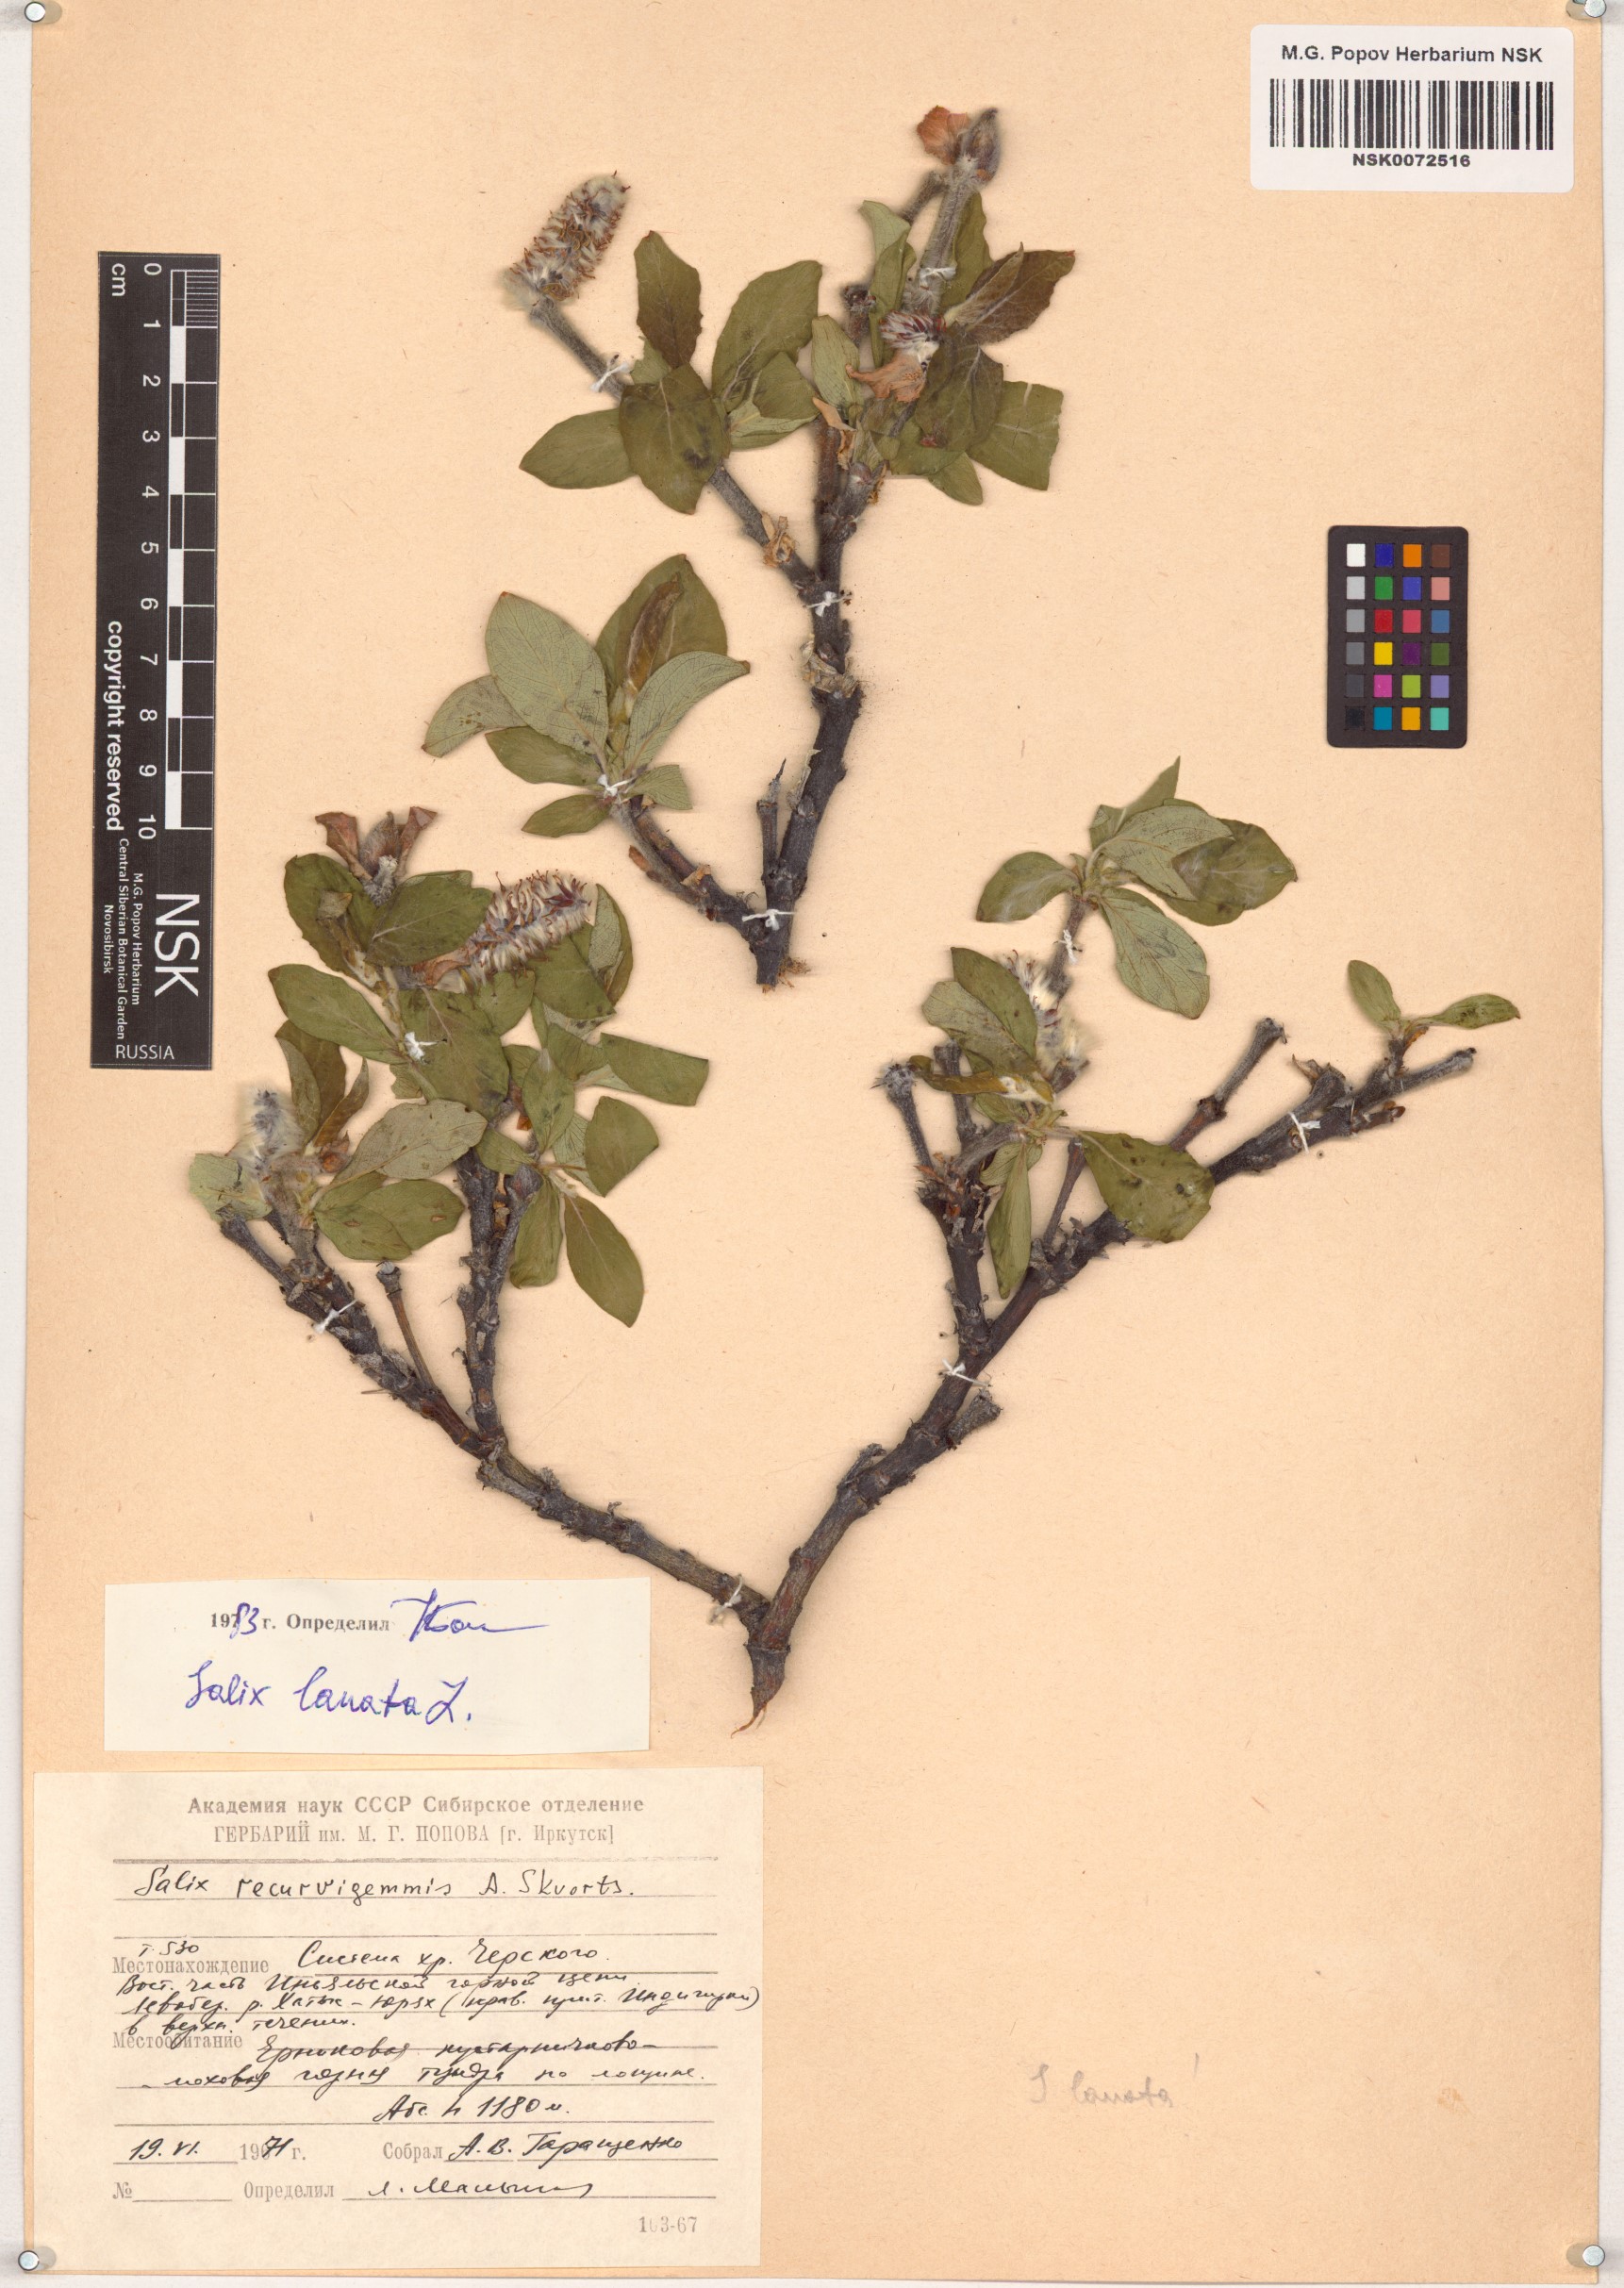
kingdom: Plantae
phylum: Tracheophyta
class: Magnoliopsida
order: Malpighiales
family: Salicaceae
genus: Salix
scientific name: Salix lanata
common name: Woolly willow
